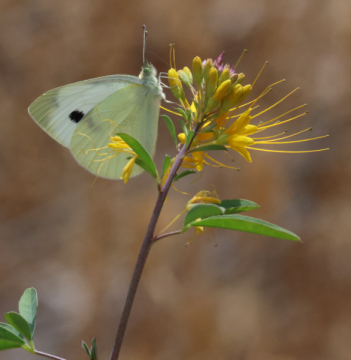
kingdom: Animalia
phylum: Arthropoda
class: Insecta
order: Lepidoptera
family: Pieridae
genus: Pieris
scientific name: Pieris rapae
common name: Cabbage White
